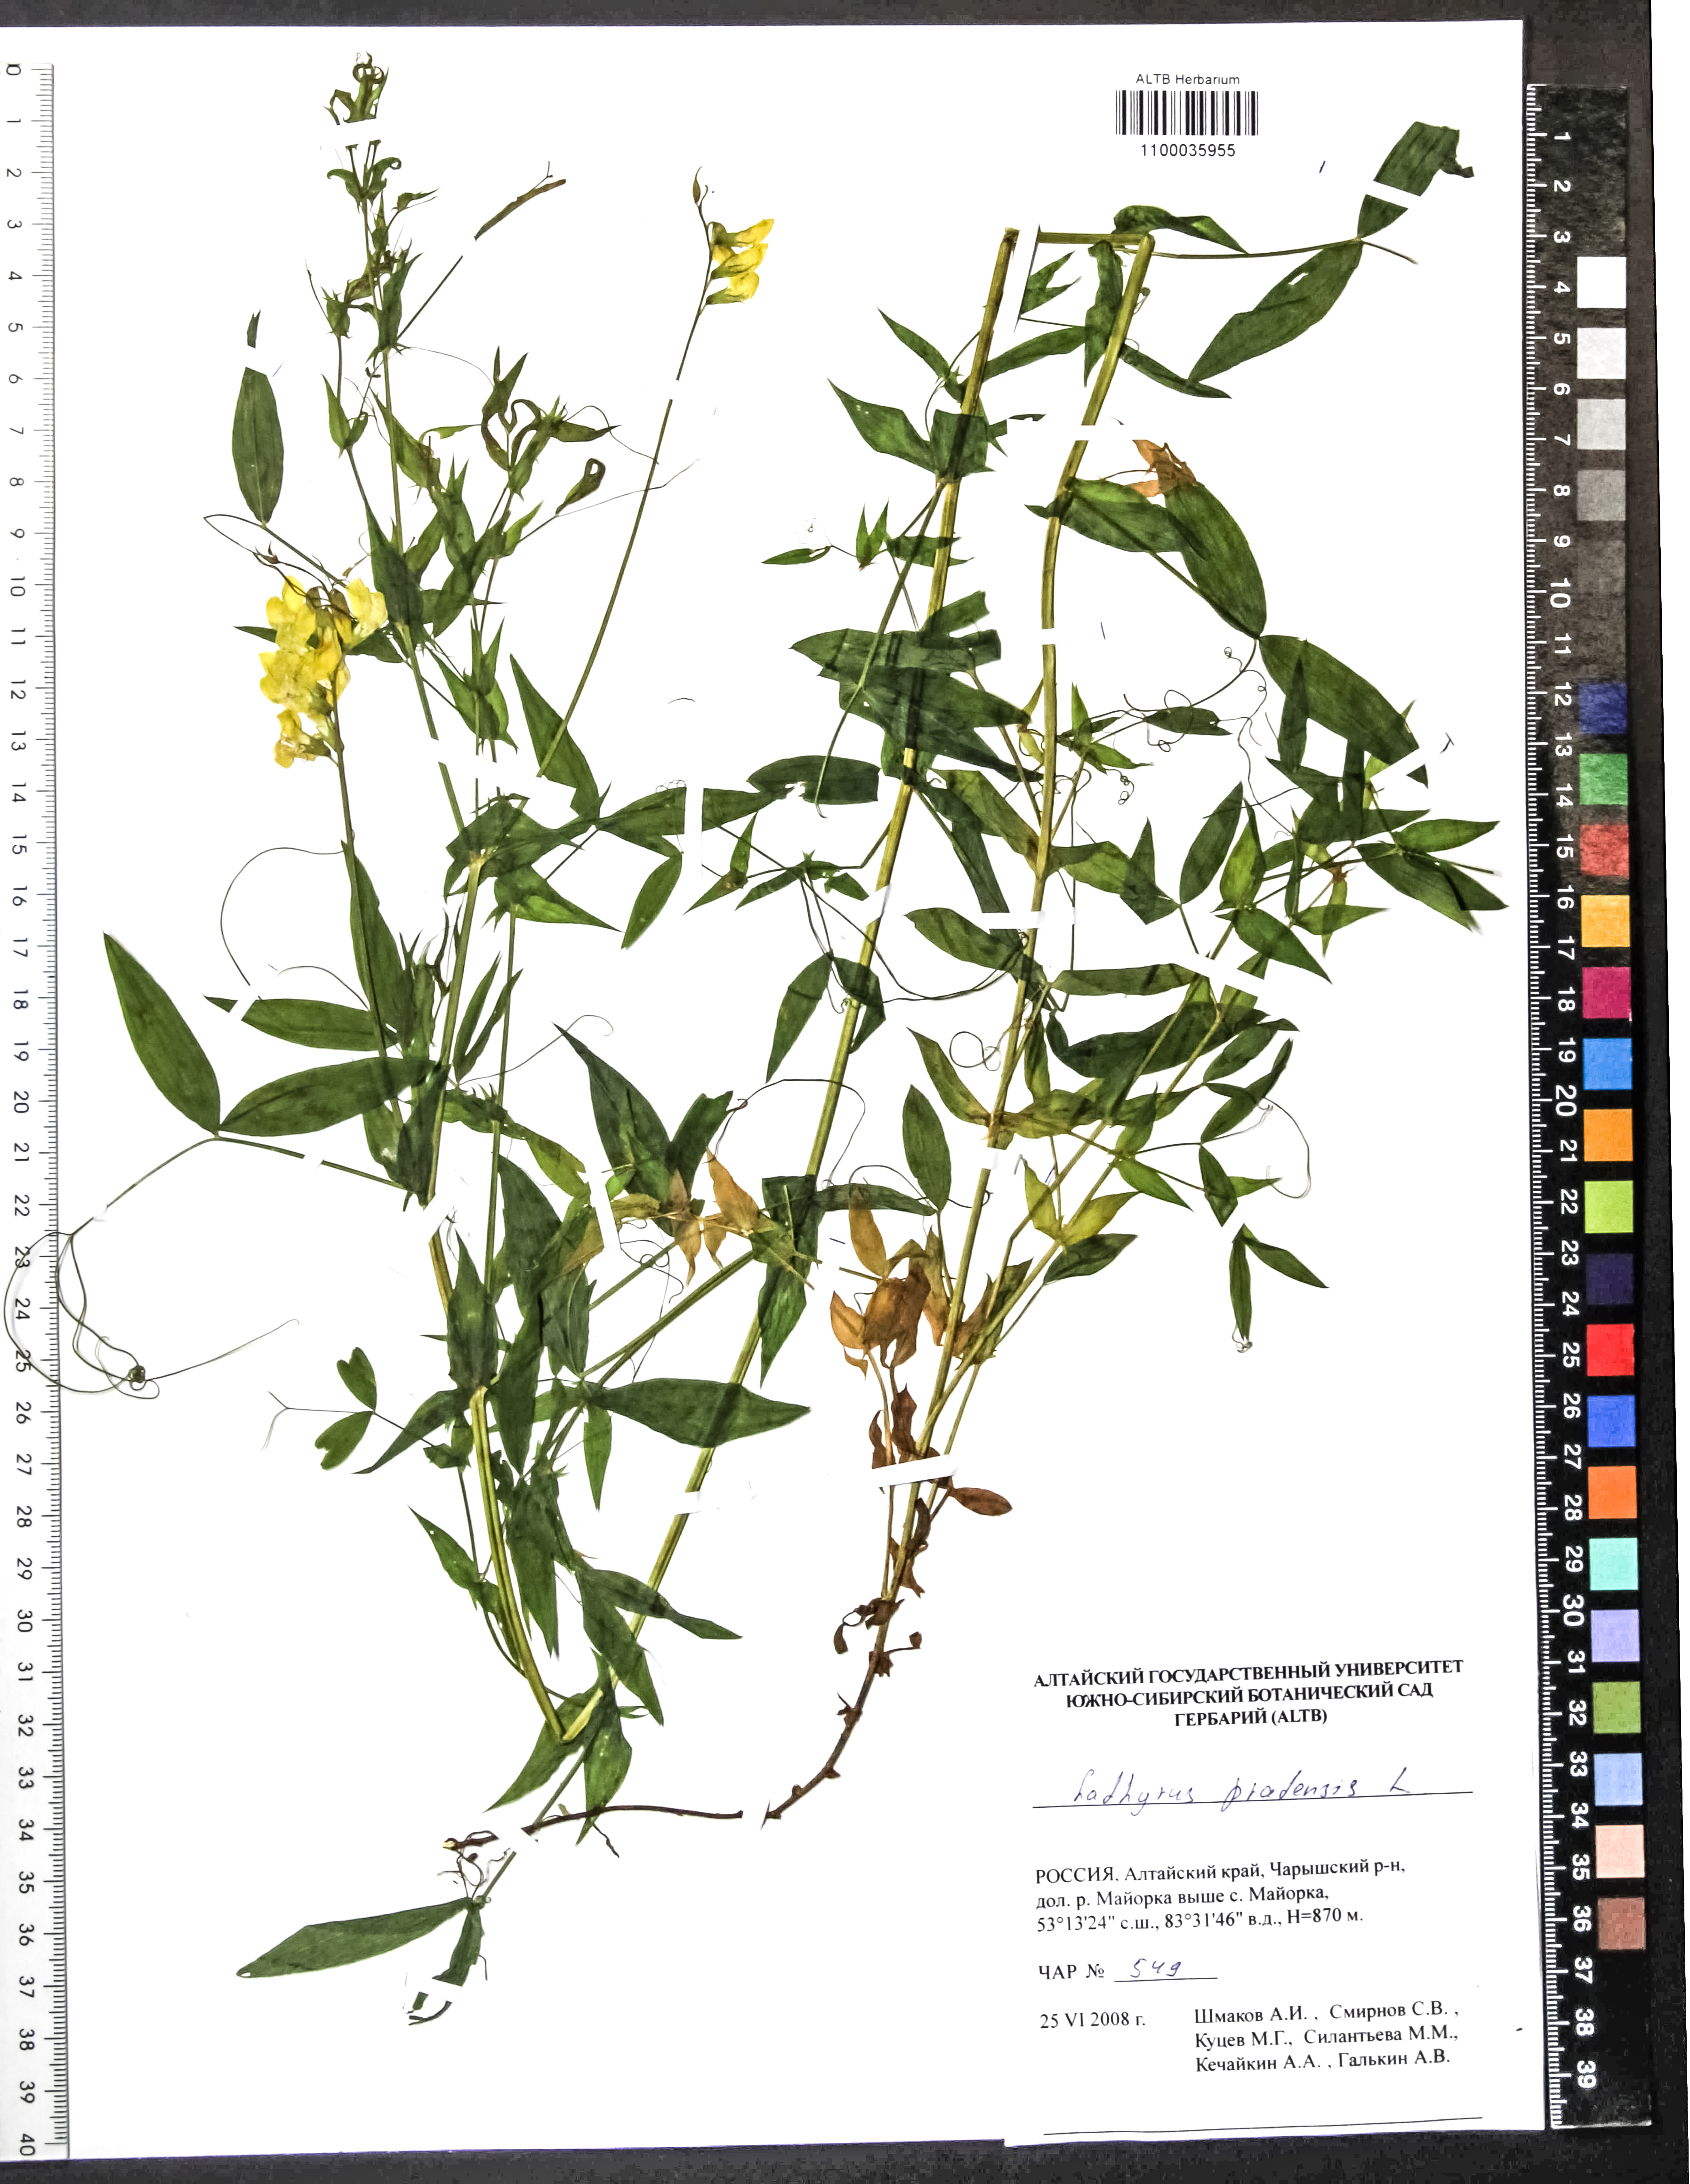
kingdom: Plantae
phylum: Tracheophyta
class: Magnoliopsida
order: Fabales
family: Fabaceae
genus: Lathyrus
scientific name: Lathyrus pratensis
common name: Meadow vetchling
